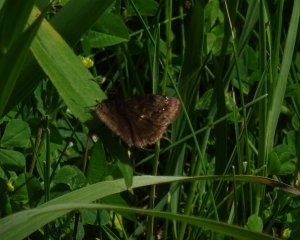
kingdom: Animalia
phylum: Arthropoda
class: Insecta
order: Lepidoptera
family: Hesperiidae
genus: Gesta
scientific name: Gesta
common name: Wild Indigo Duskywing
